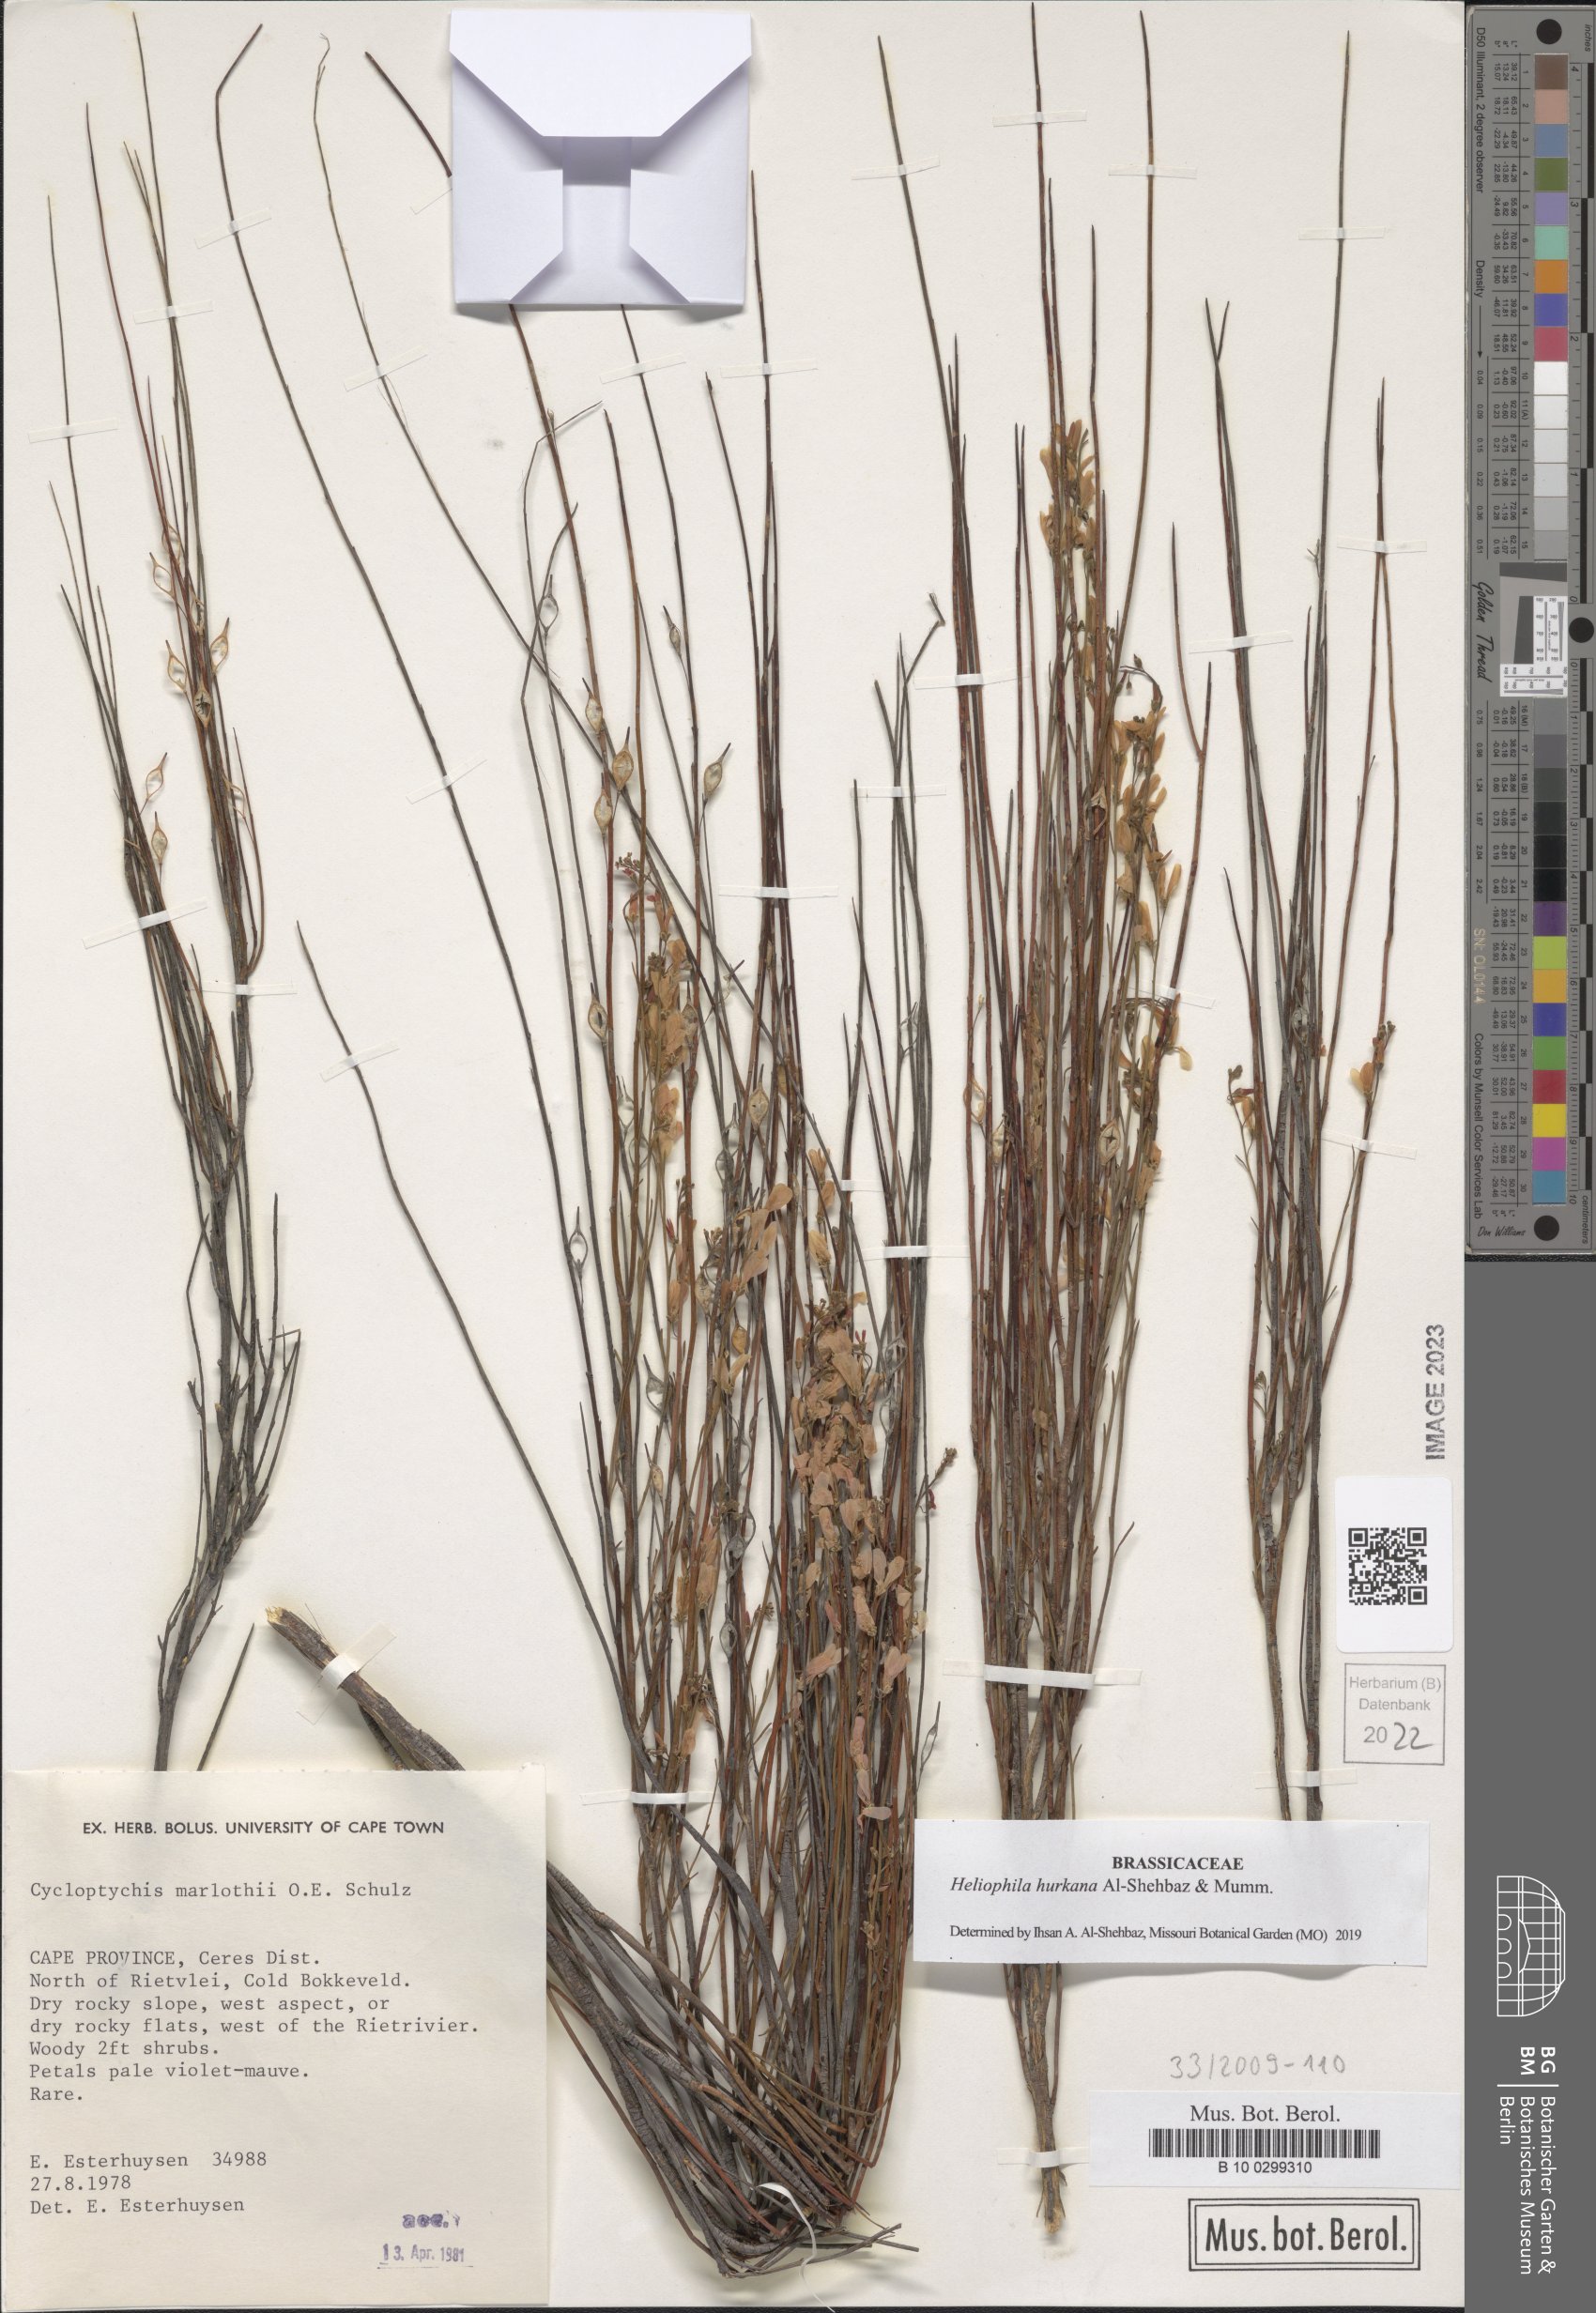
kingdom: Plantae
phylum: Tracheophyta
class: Magnoliopsida
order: Brassicales
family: Brassicaceae
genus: Heliophila
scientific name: Heliophila hurkana
